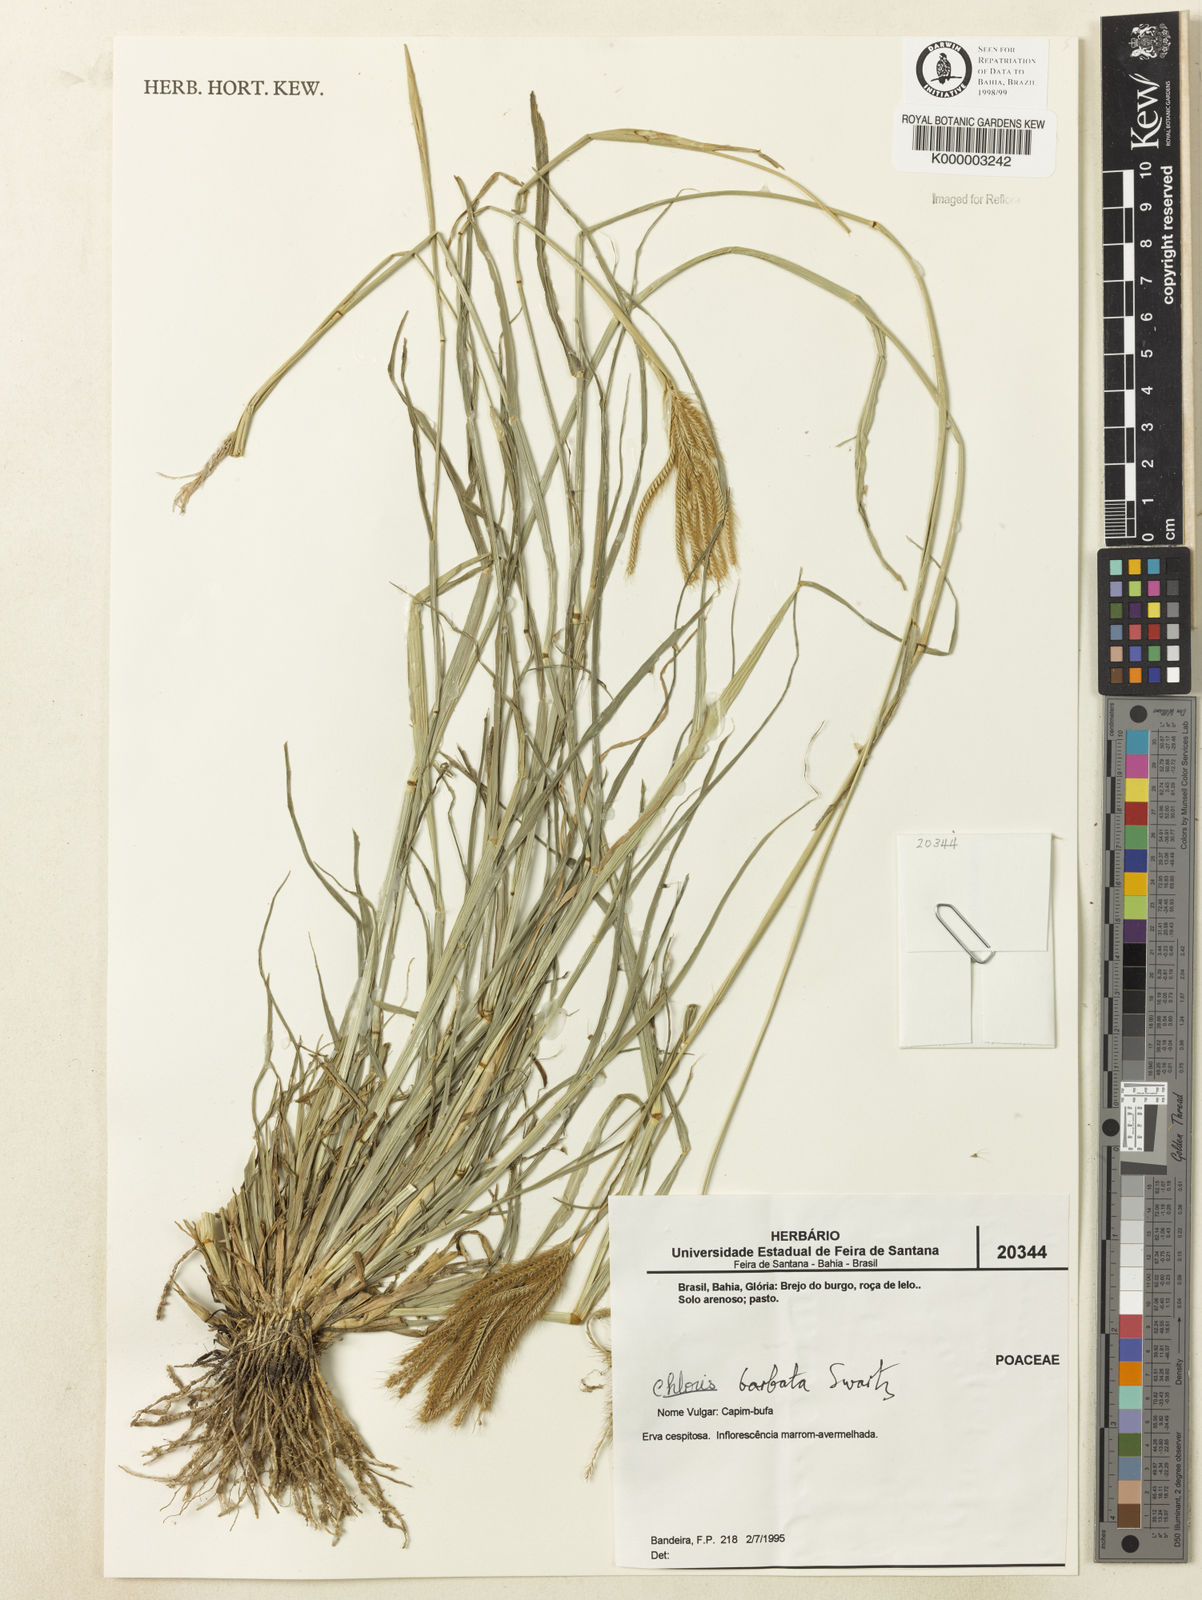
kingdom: Plantae
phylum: Tracheophyta
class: Liliopsida
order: Poales
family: Poaceae
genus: Chloris
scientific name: Chloris
